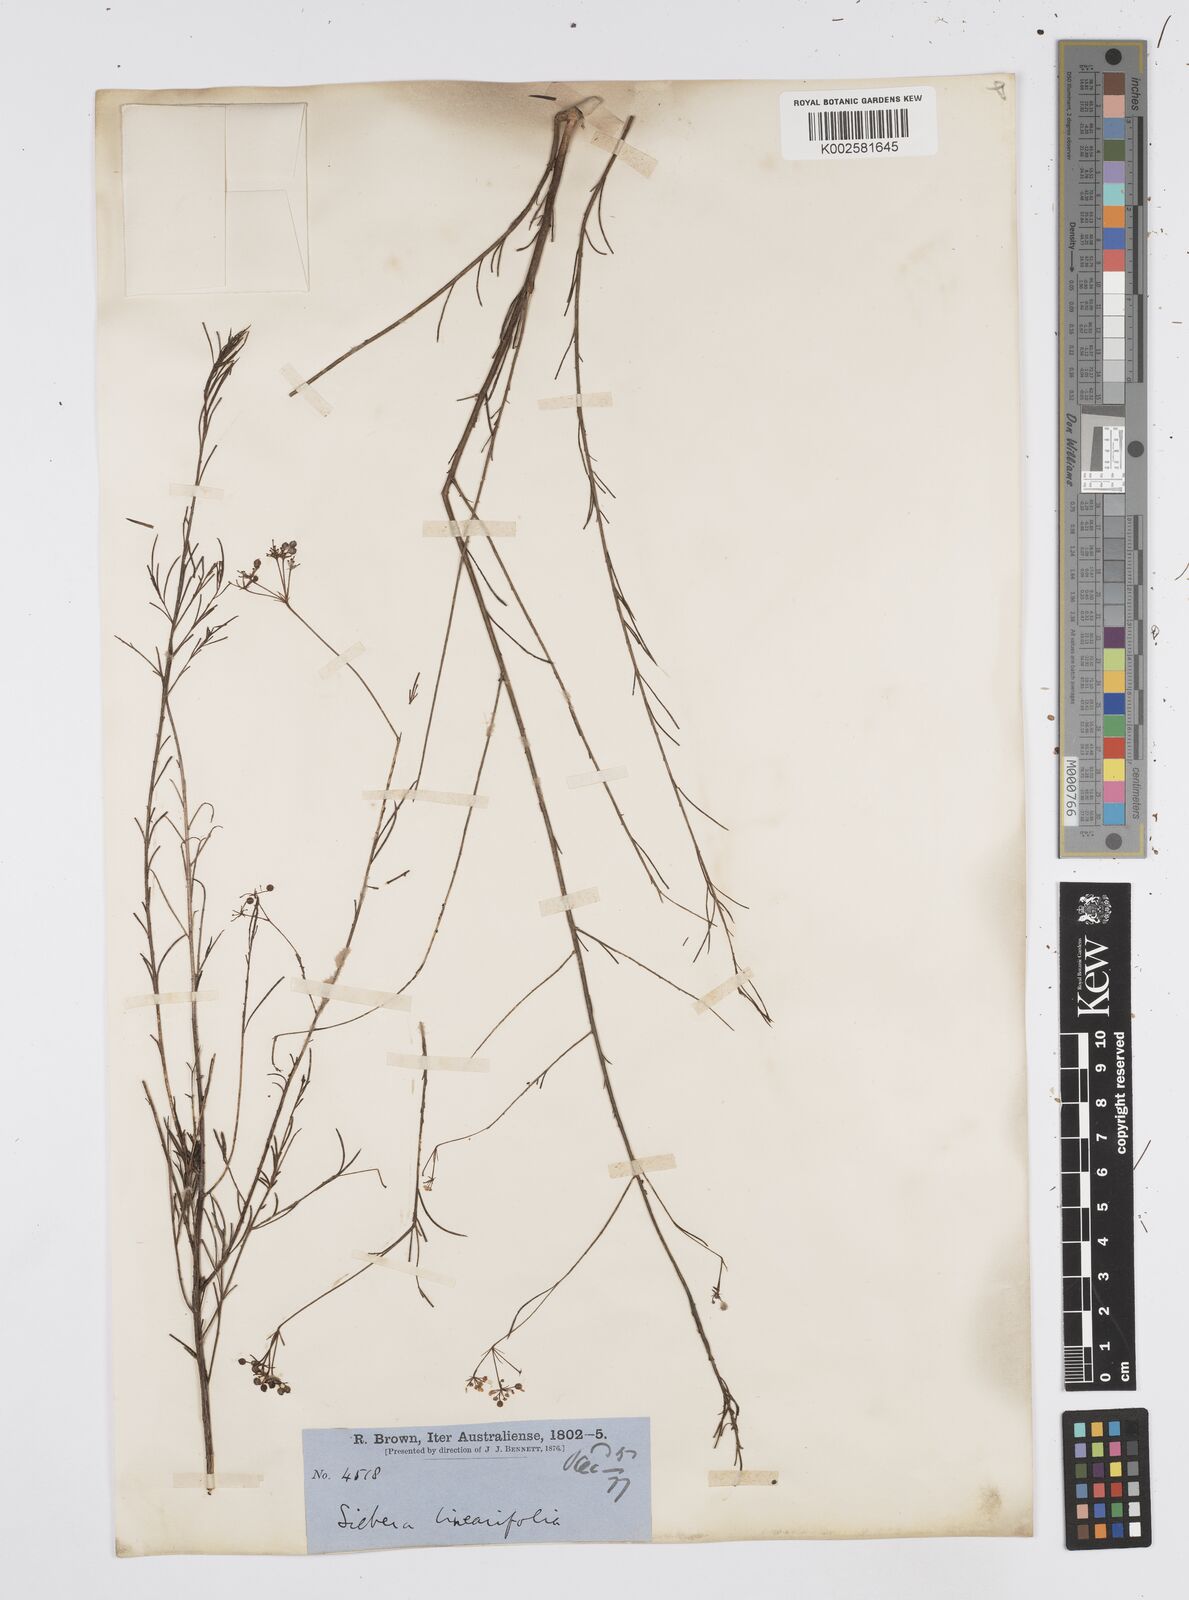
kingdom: Plantae
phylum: Tracheophyta
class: Magnoliopsida
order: Apiales
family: Apiaceae
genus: Platysace
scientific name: Platysace linearifolia
